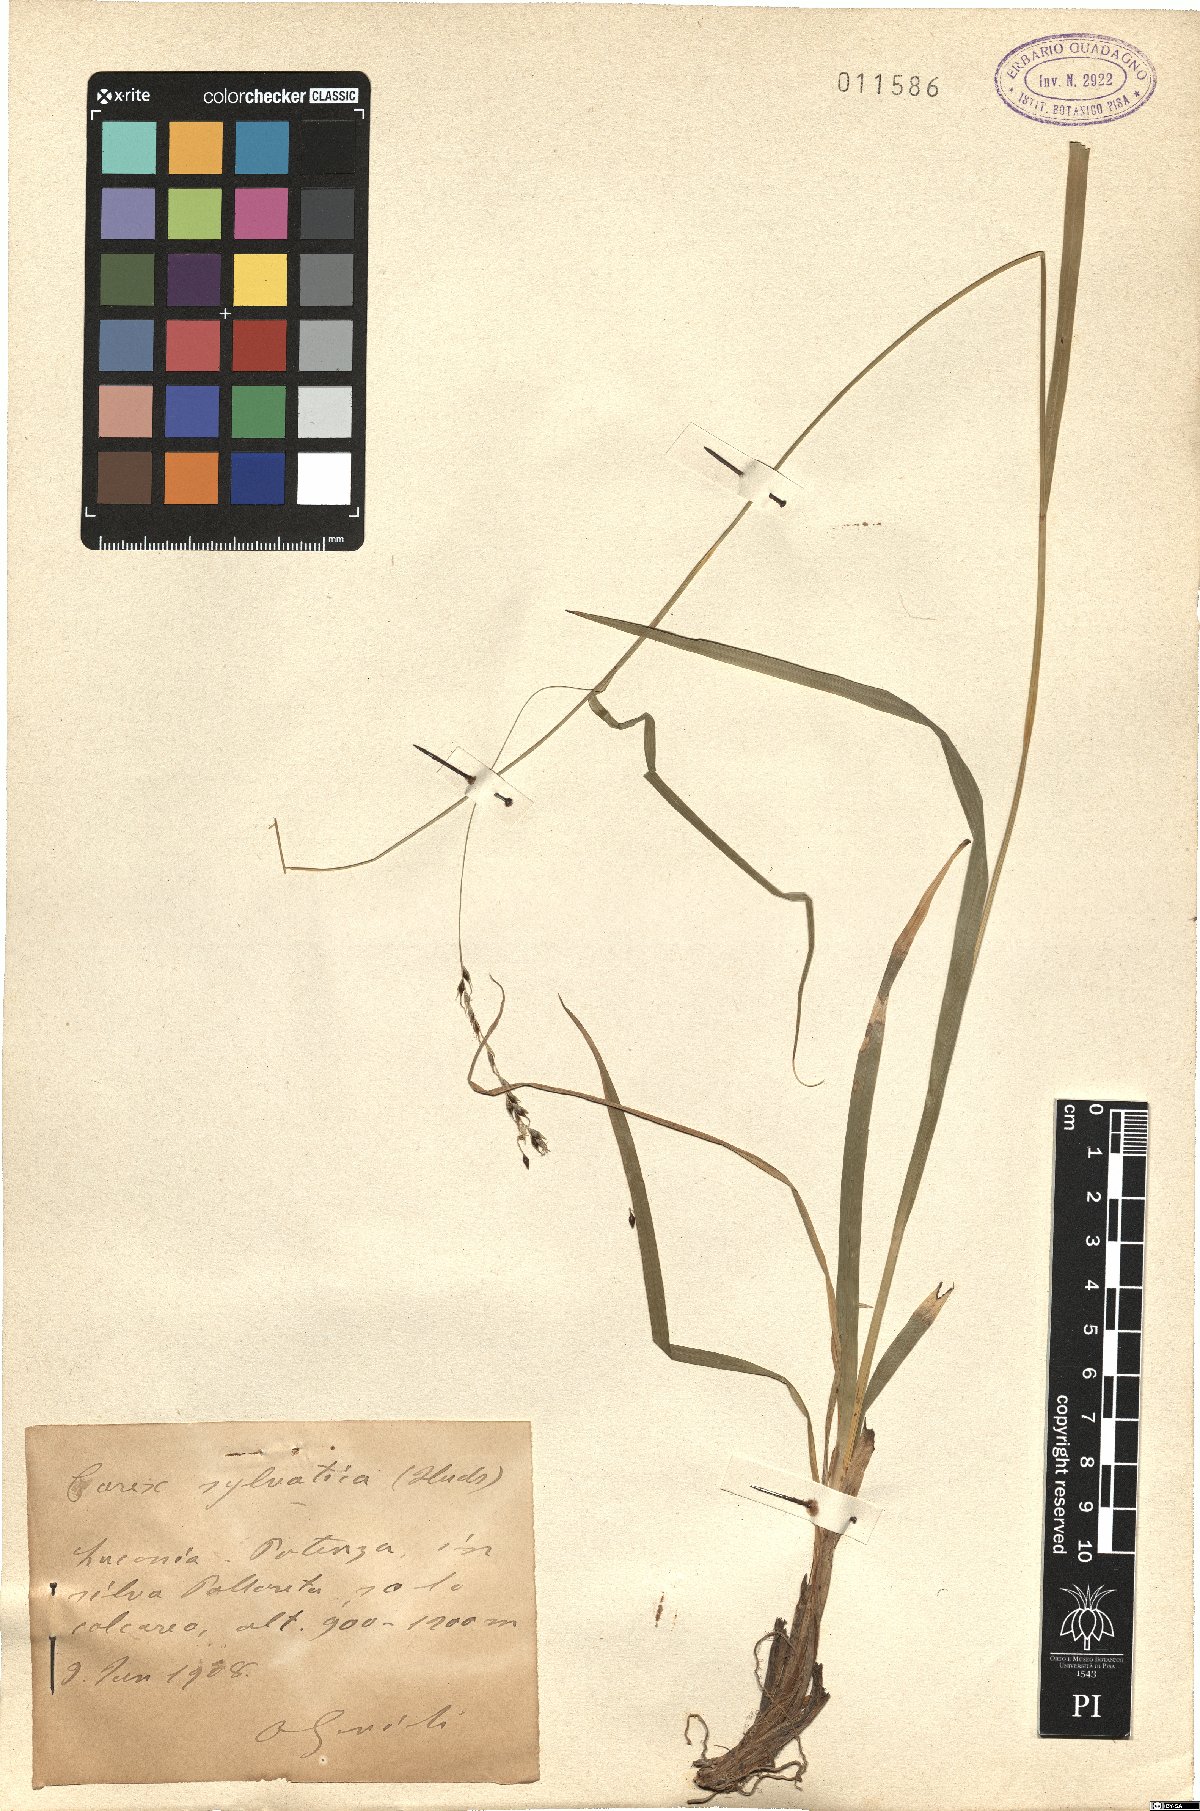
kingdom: Plantae
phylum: Tracheophyta
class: Liliopsida
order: Poales
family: Cyperaceae
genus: Carex
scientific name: Carex sylvatica
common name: Wood-sedge
